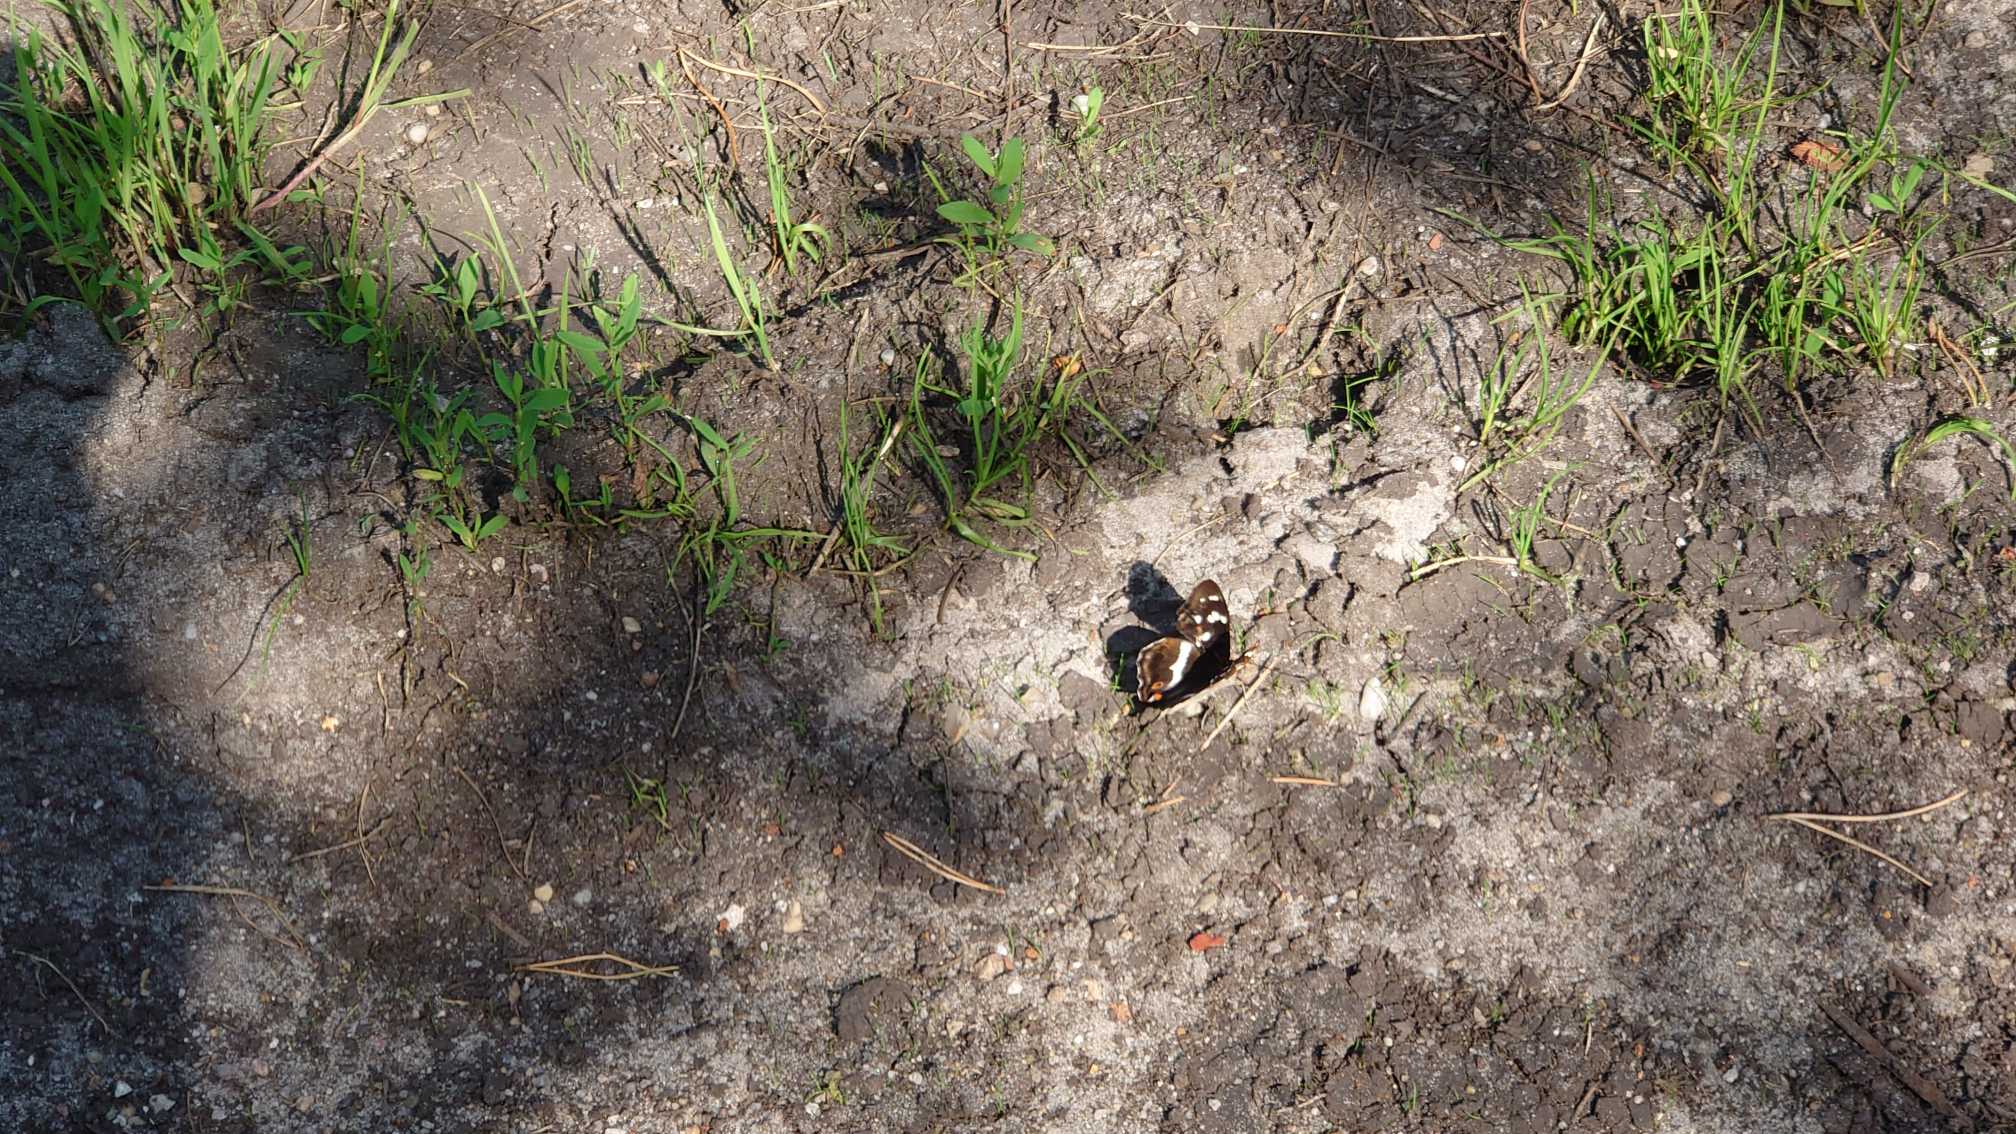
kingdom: Animalia
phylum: Arthropoda
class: Insecta
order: Lepidoptera
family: Nymphalidae
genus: Apatura
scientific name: Apatura iris
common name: Iris
